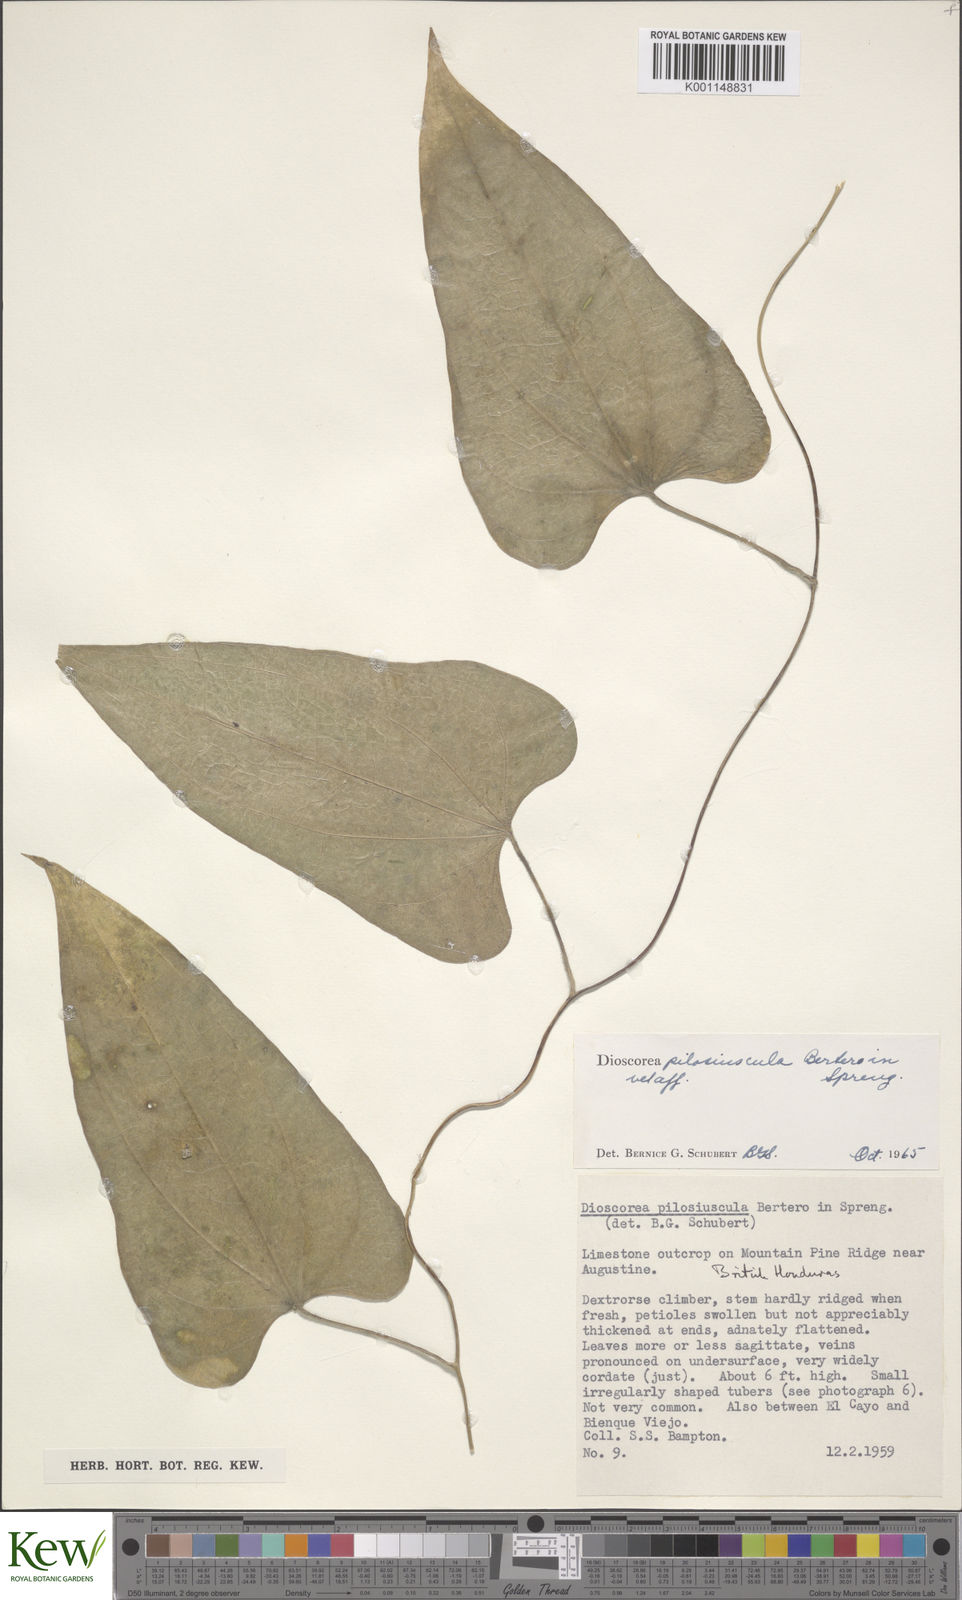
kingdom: Plantae
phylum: Tracheophyta
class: Liliopsida
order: Dioscoreales
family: Dioscoreaceae
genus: Dioscorea
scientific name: Dioscorea pilosiuscula
